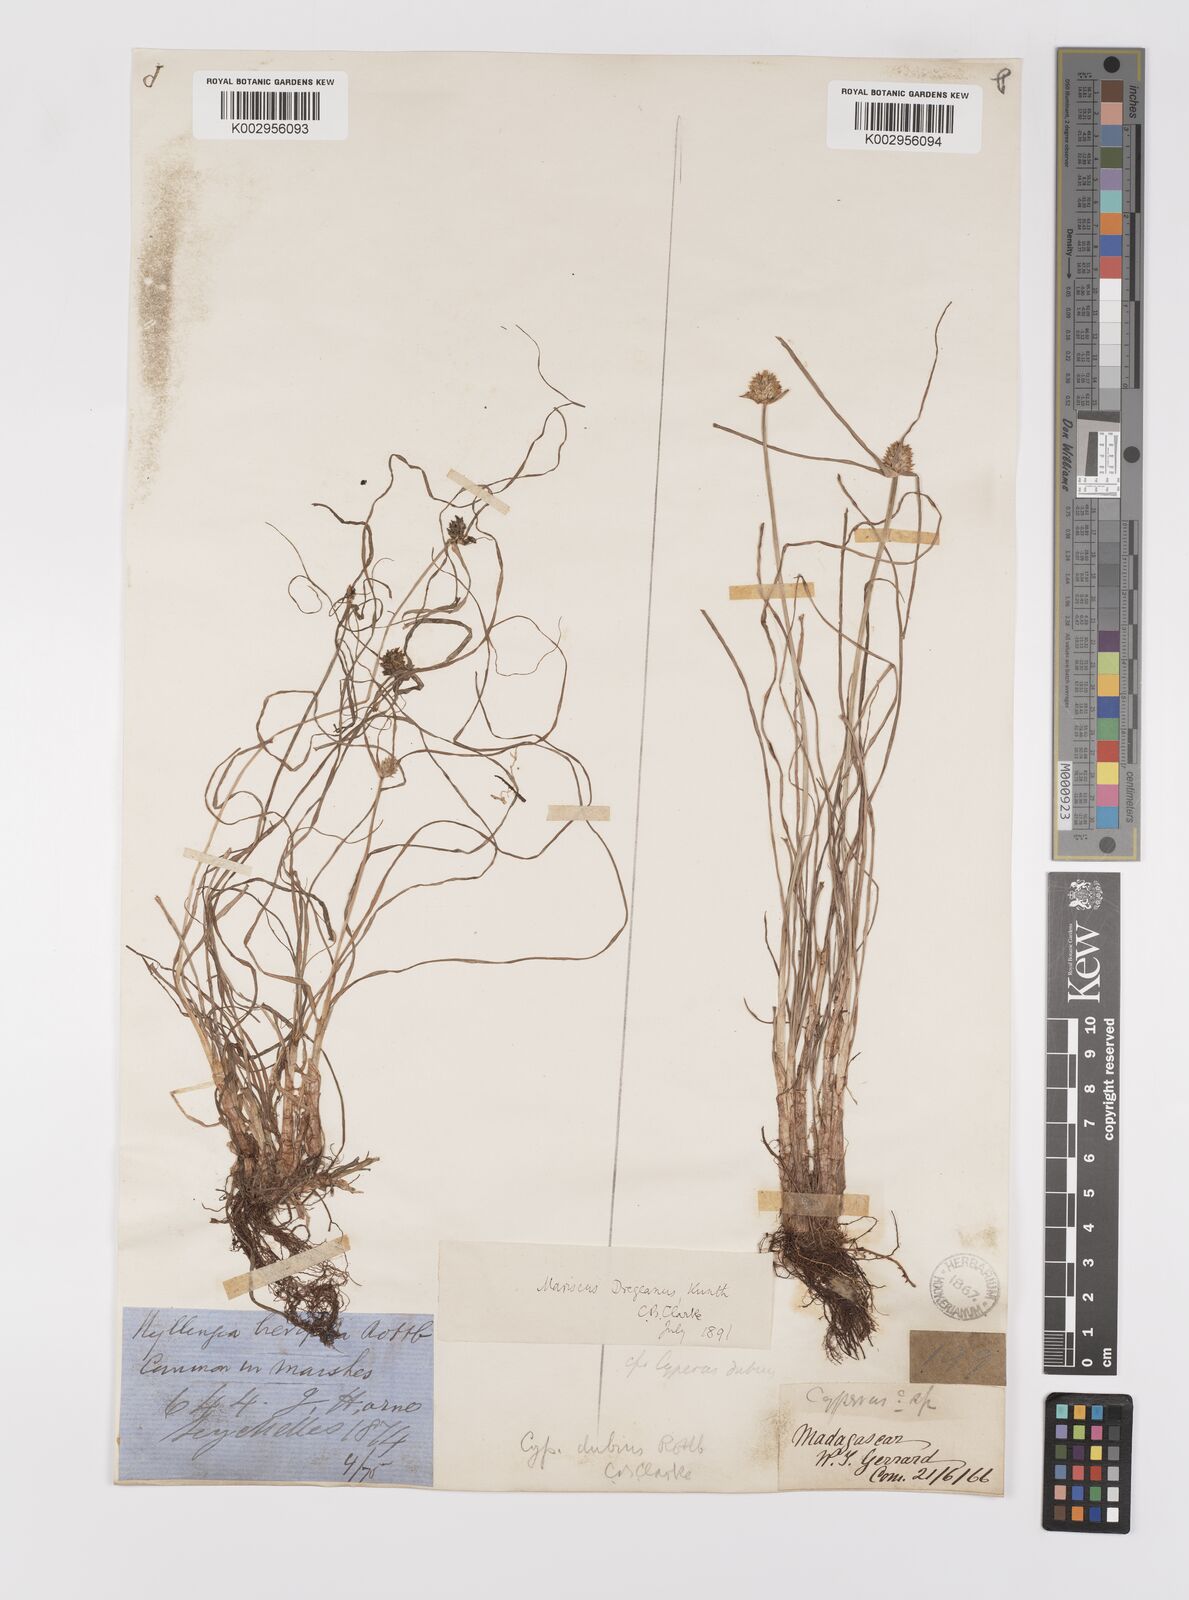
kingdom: Plantae
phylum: Tracheophyta
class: Liliopsida
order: Poales
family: Cyperaceae
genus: Cyperus
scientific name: Cyperus dubius
